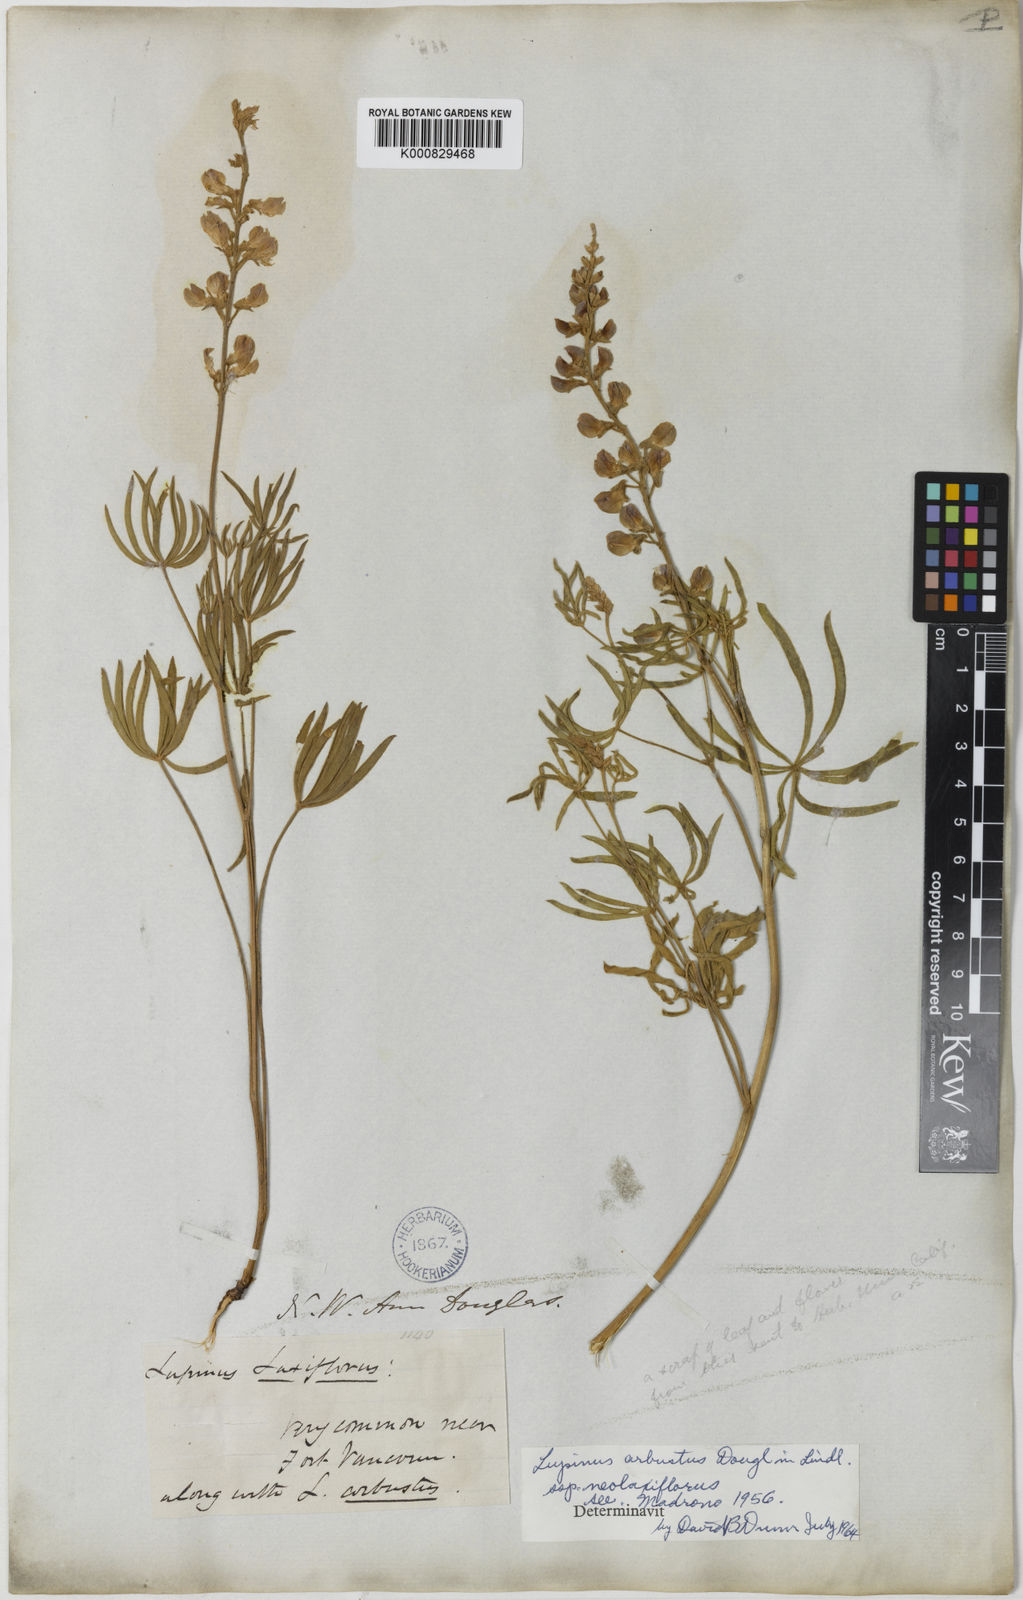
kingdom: Plantae
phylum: Tracheophyta
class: Magnoliopsida
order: Fabales
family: Fabaceae
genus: Lupinus
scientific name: Lupinus argenteus
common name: Silvery lupine
